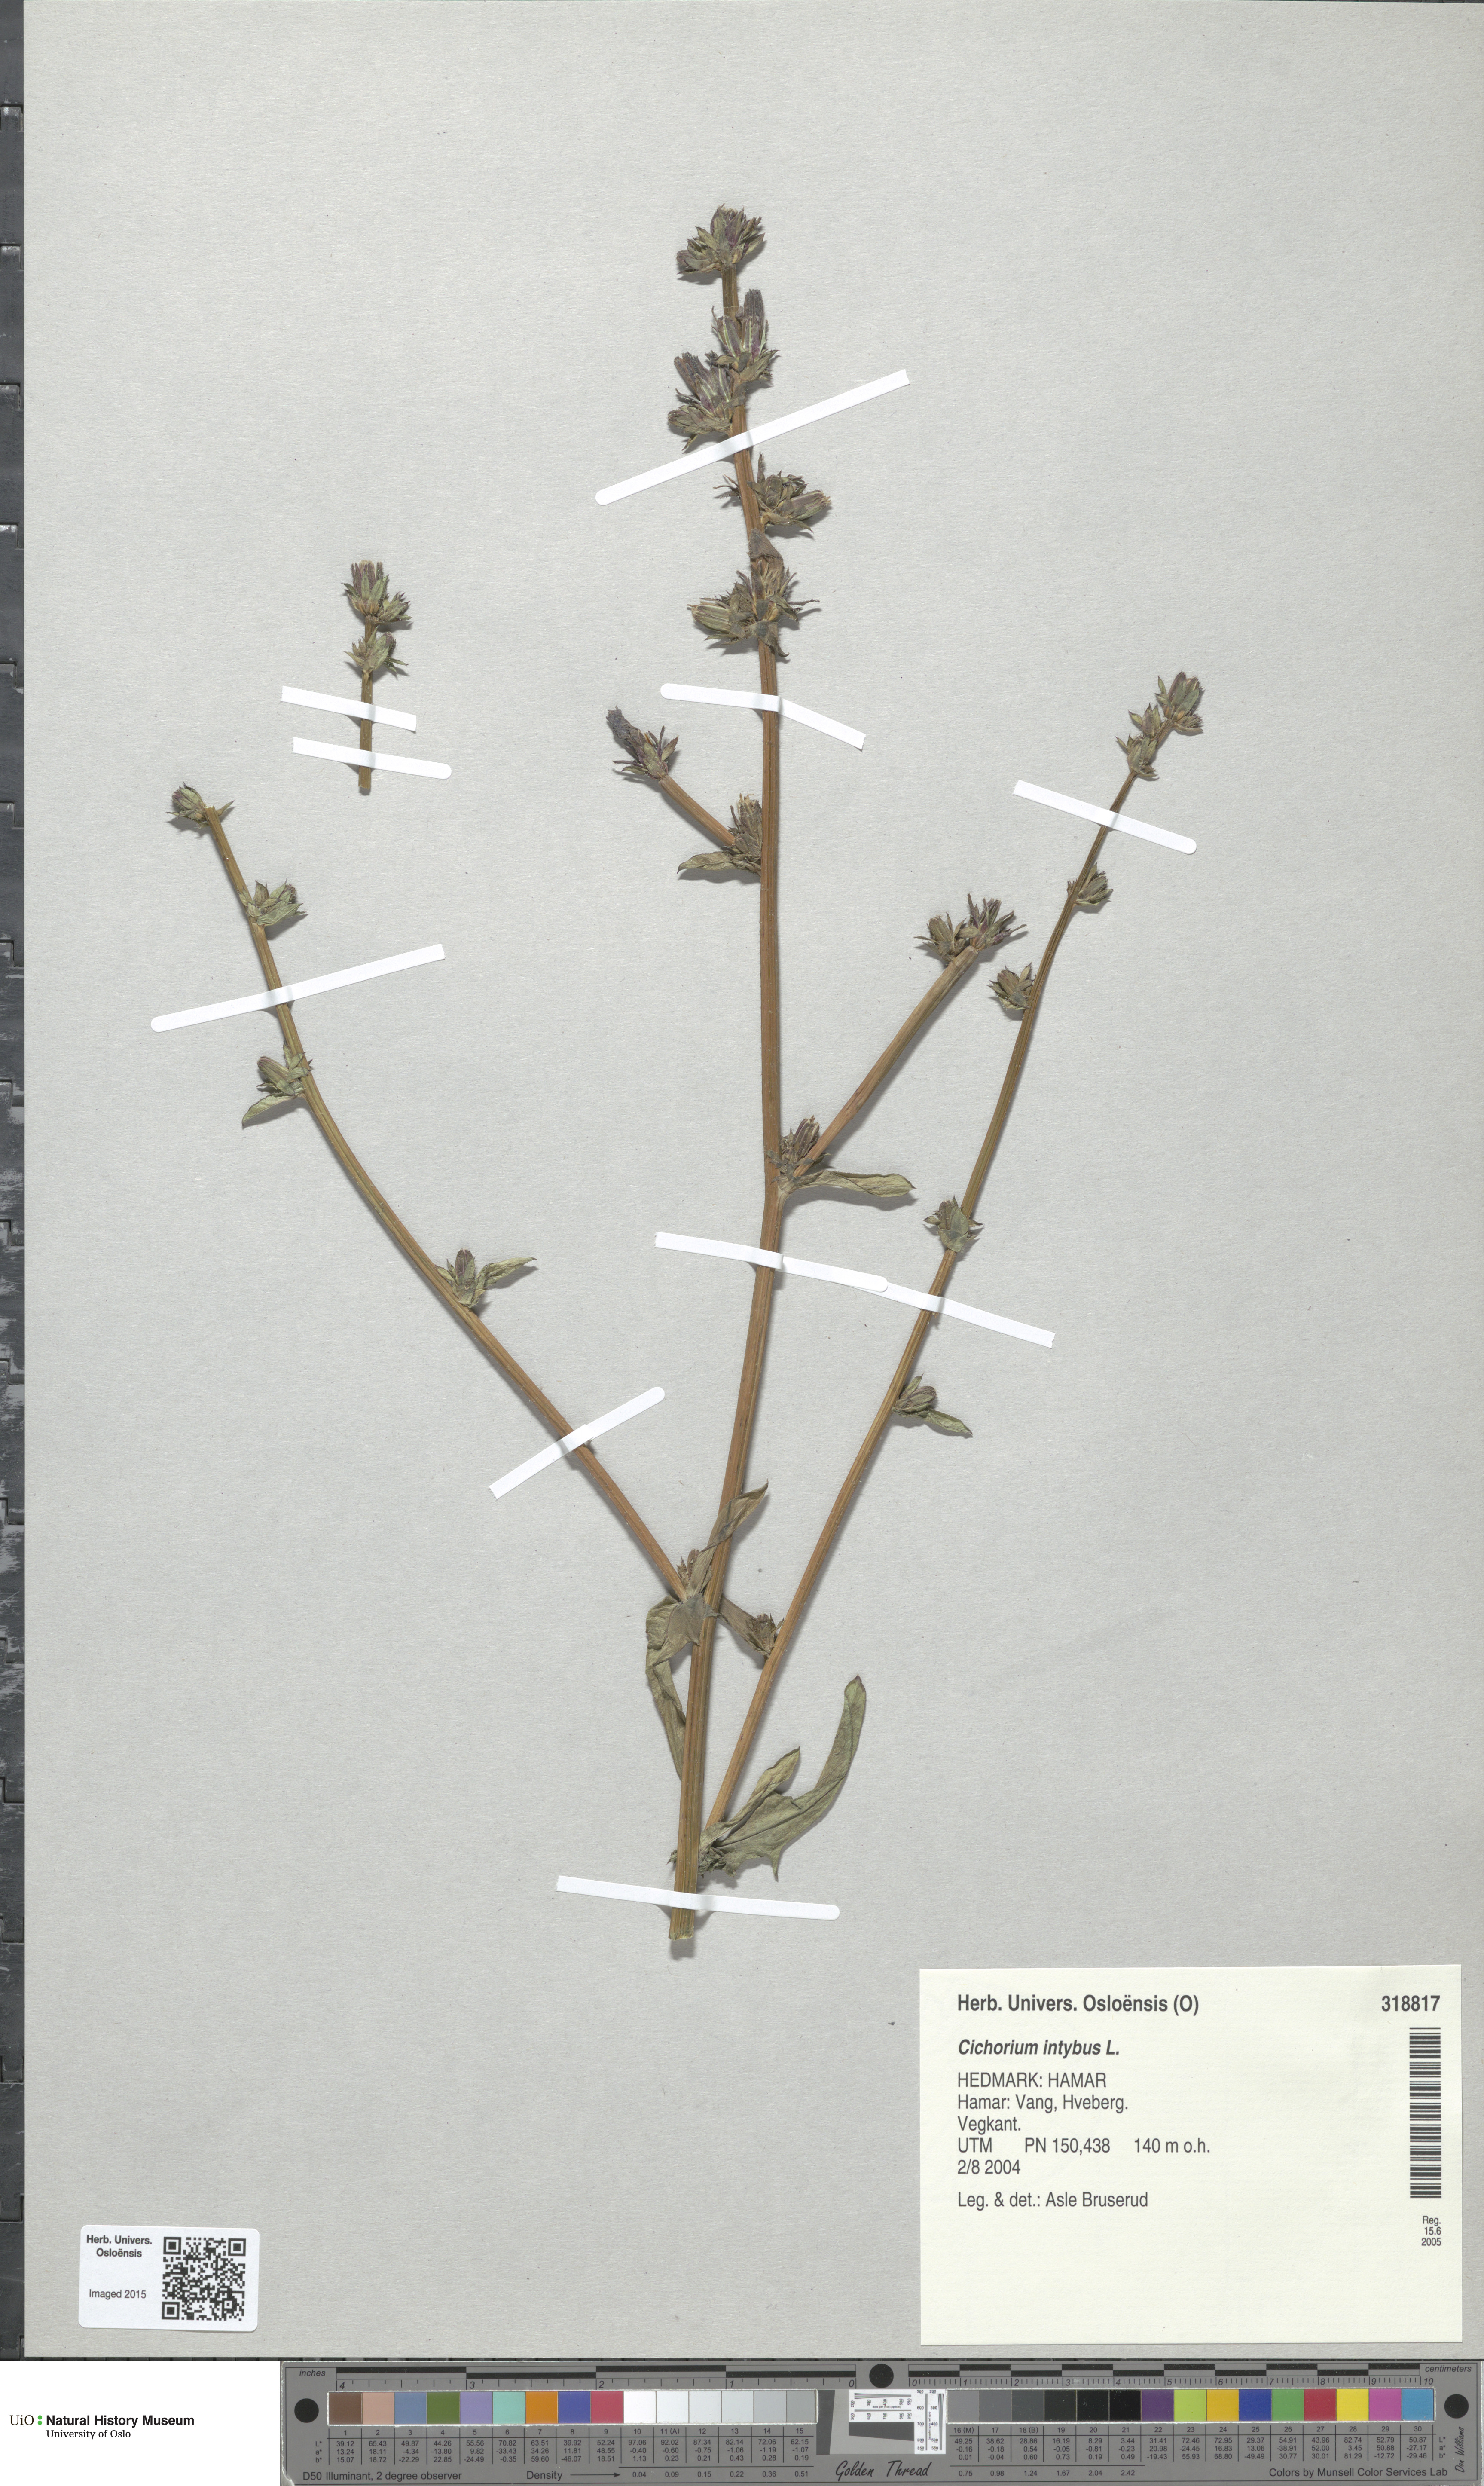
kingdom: Plantae
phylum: Tracheophyta
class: Magnoliopsida
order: Asterales
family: Asteraceae
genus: Cichorium
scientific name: Cichorium intybus
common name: Chicory
